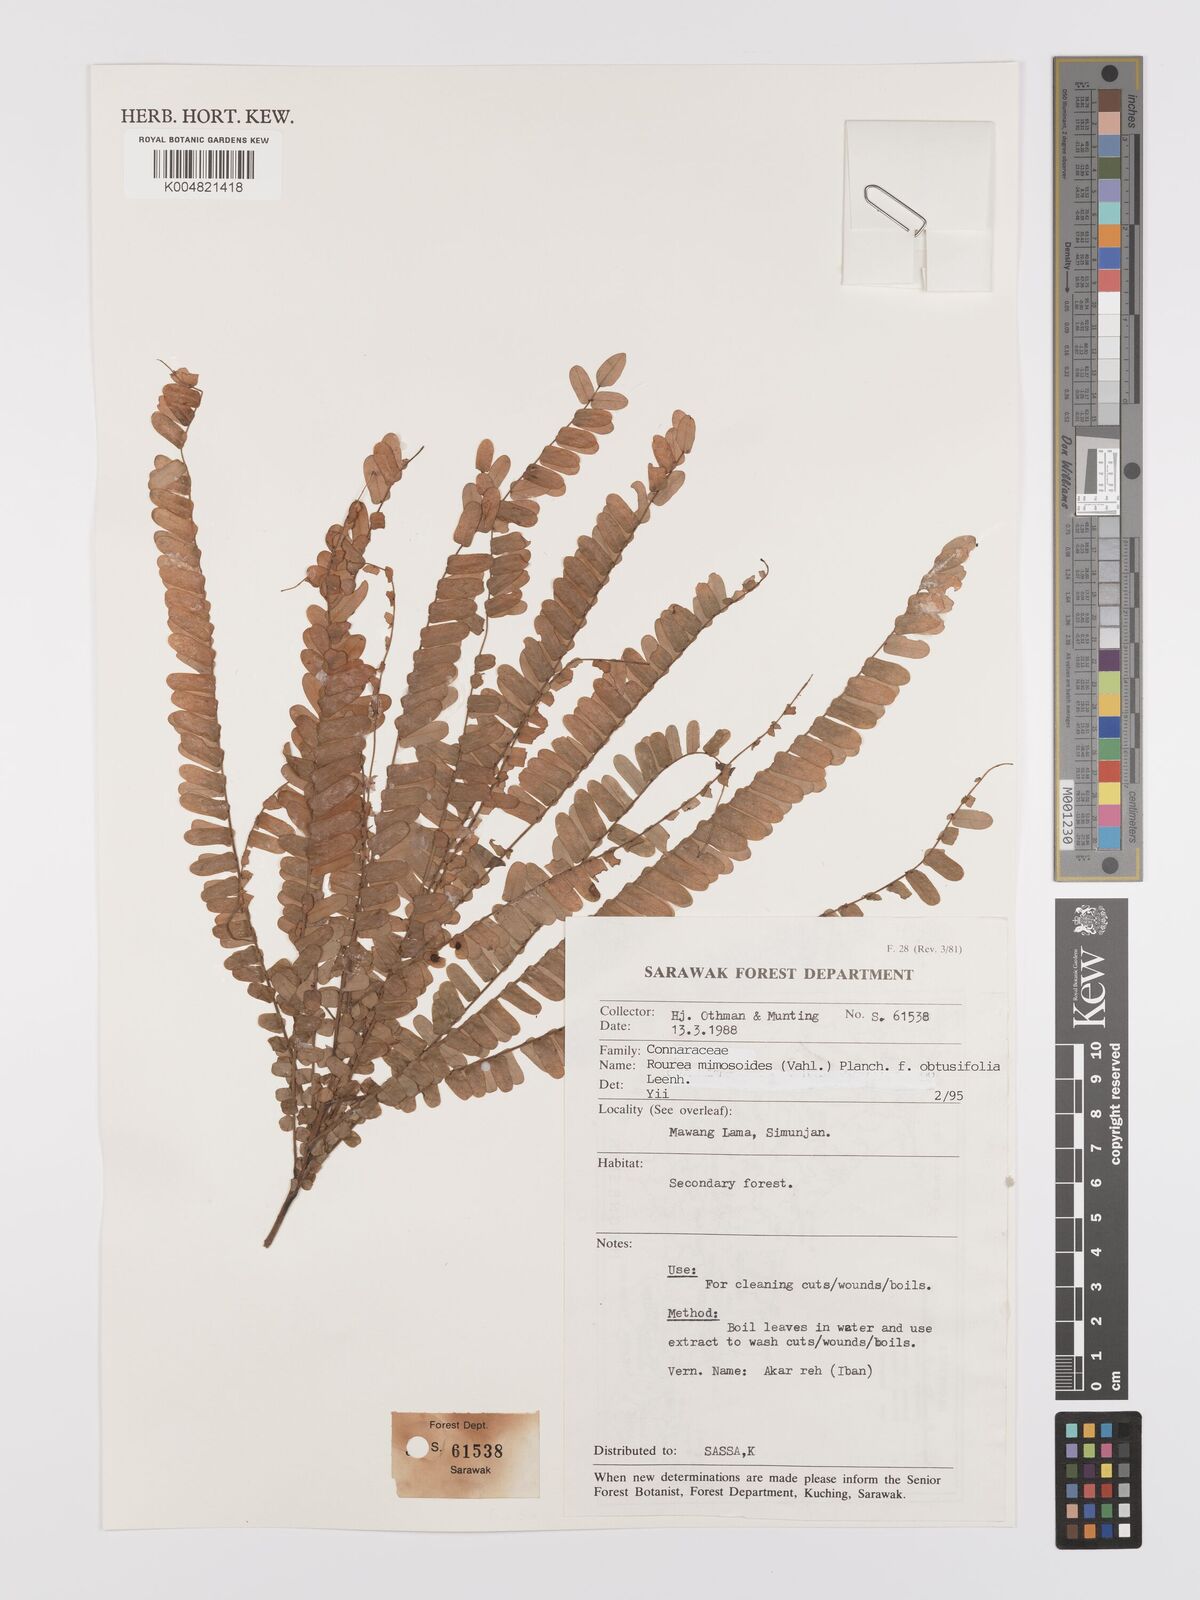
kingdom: Plantae
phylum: Tracheophyta
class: Magnoliopsida
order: Oxalidales
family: Connaraceae
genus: Rourea
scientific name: Rourea mimosoides
